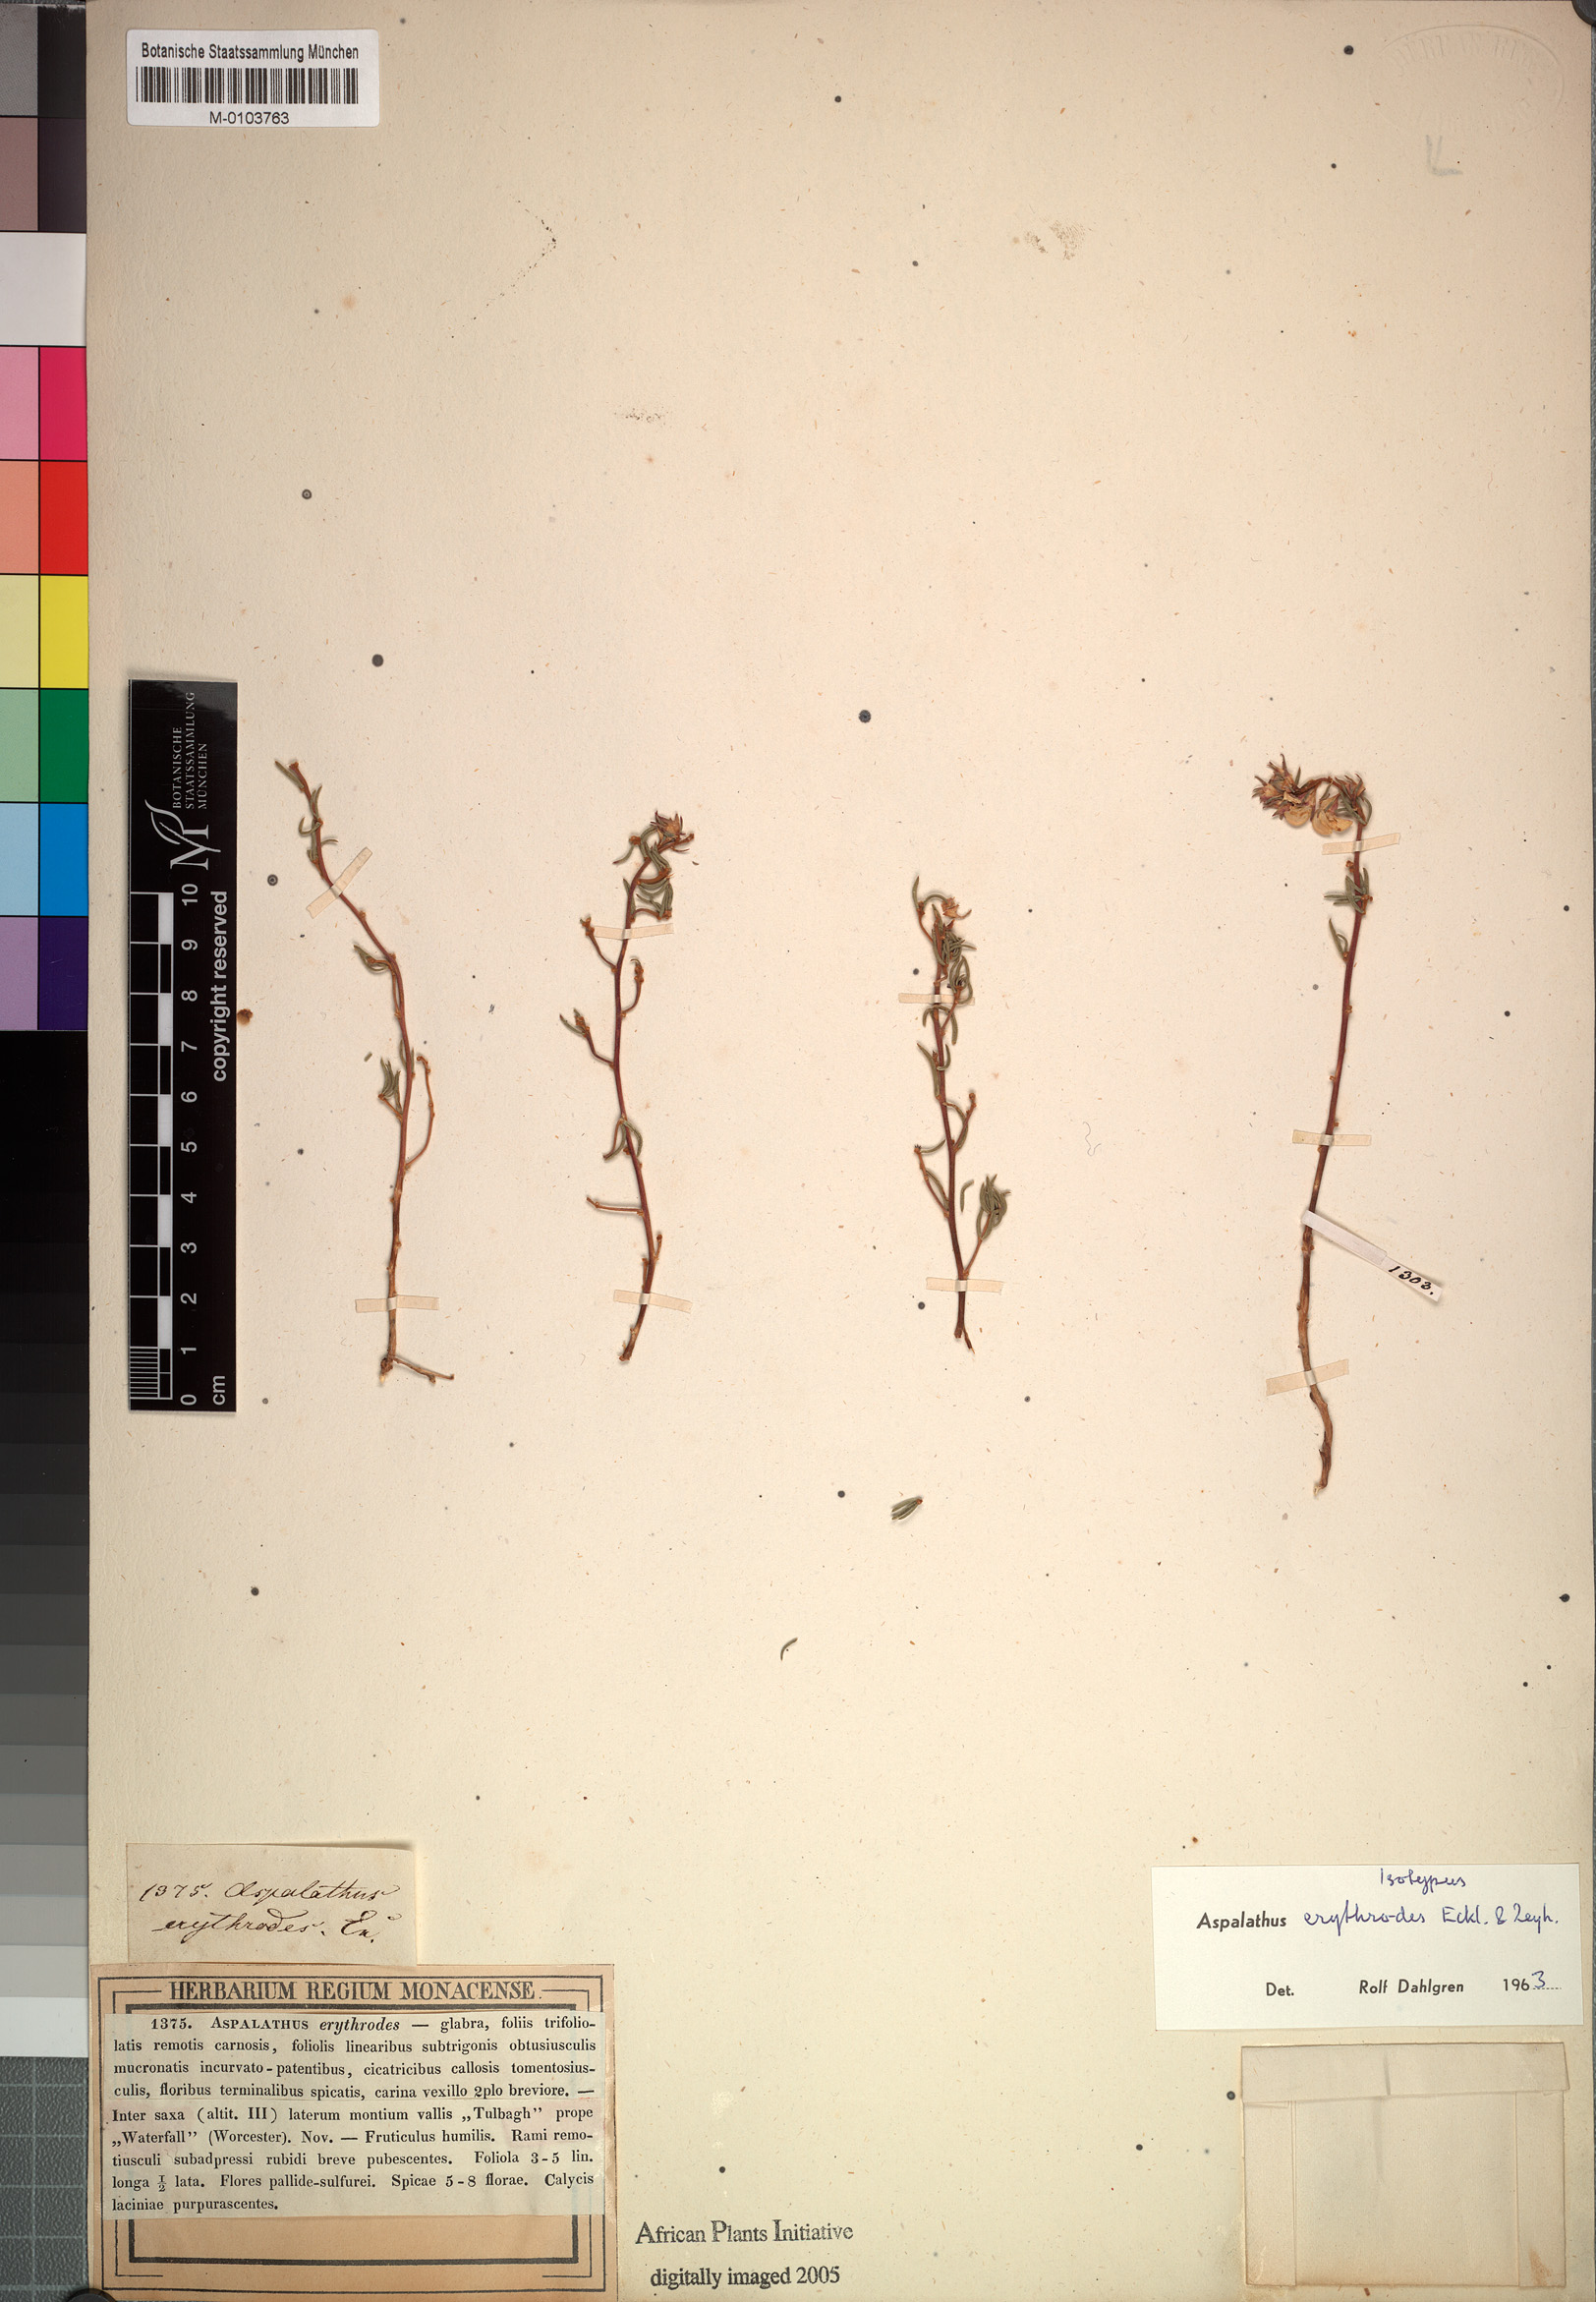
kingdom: Plantae
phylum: Tracheophyta
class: Magnoliopsida
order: Fabales
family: Fabaceae
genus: Aspalathus
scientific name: Aspalathus erythrodes
